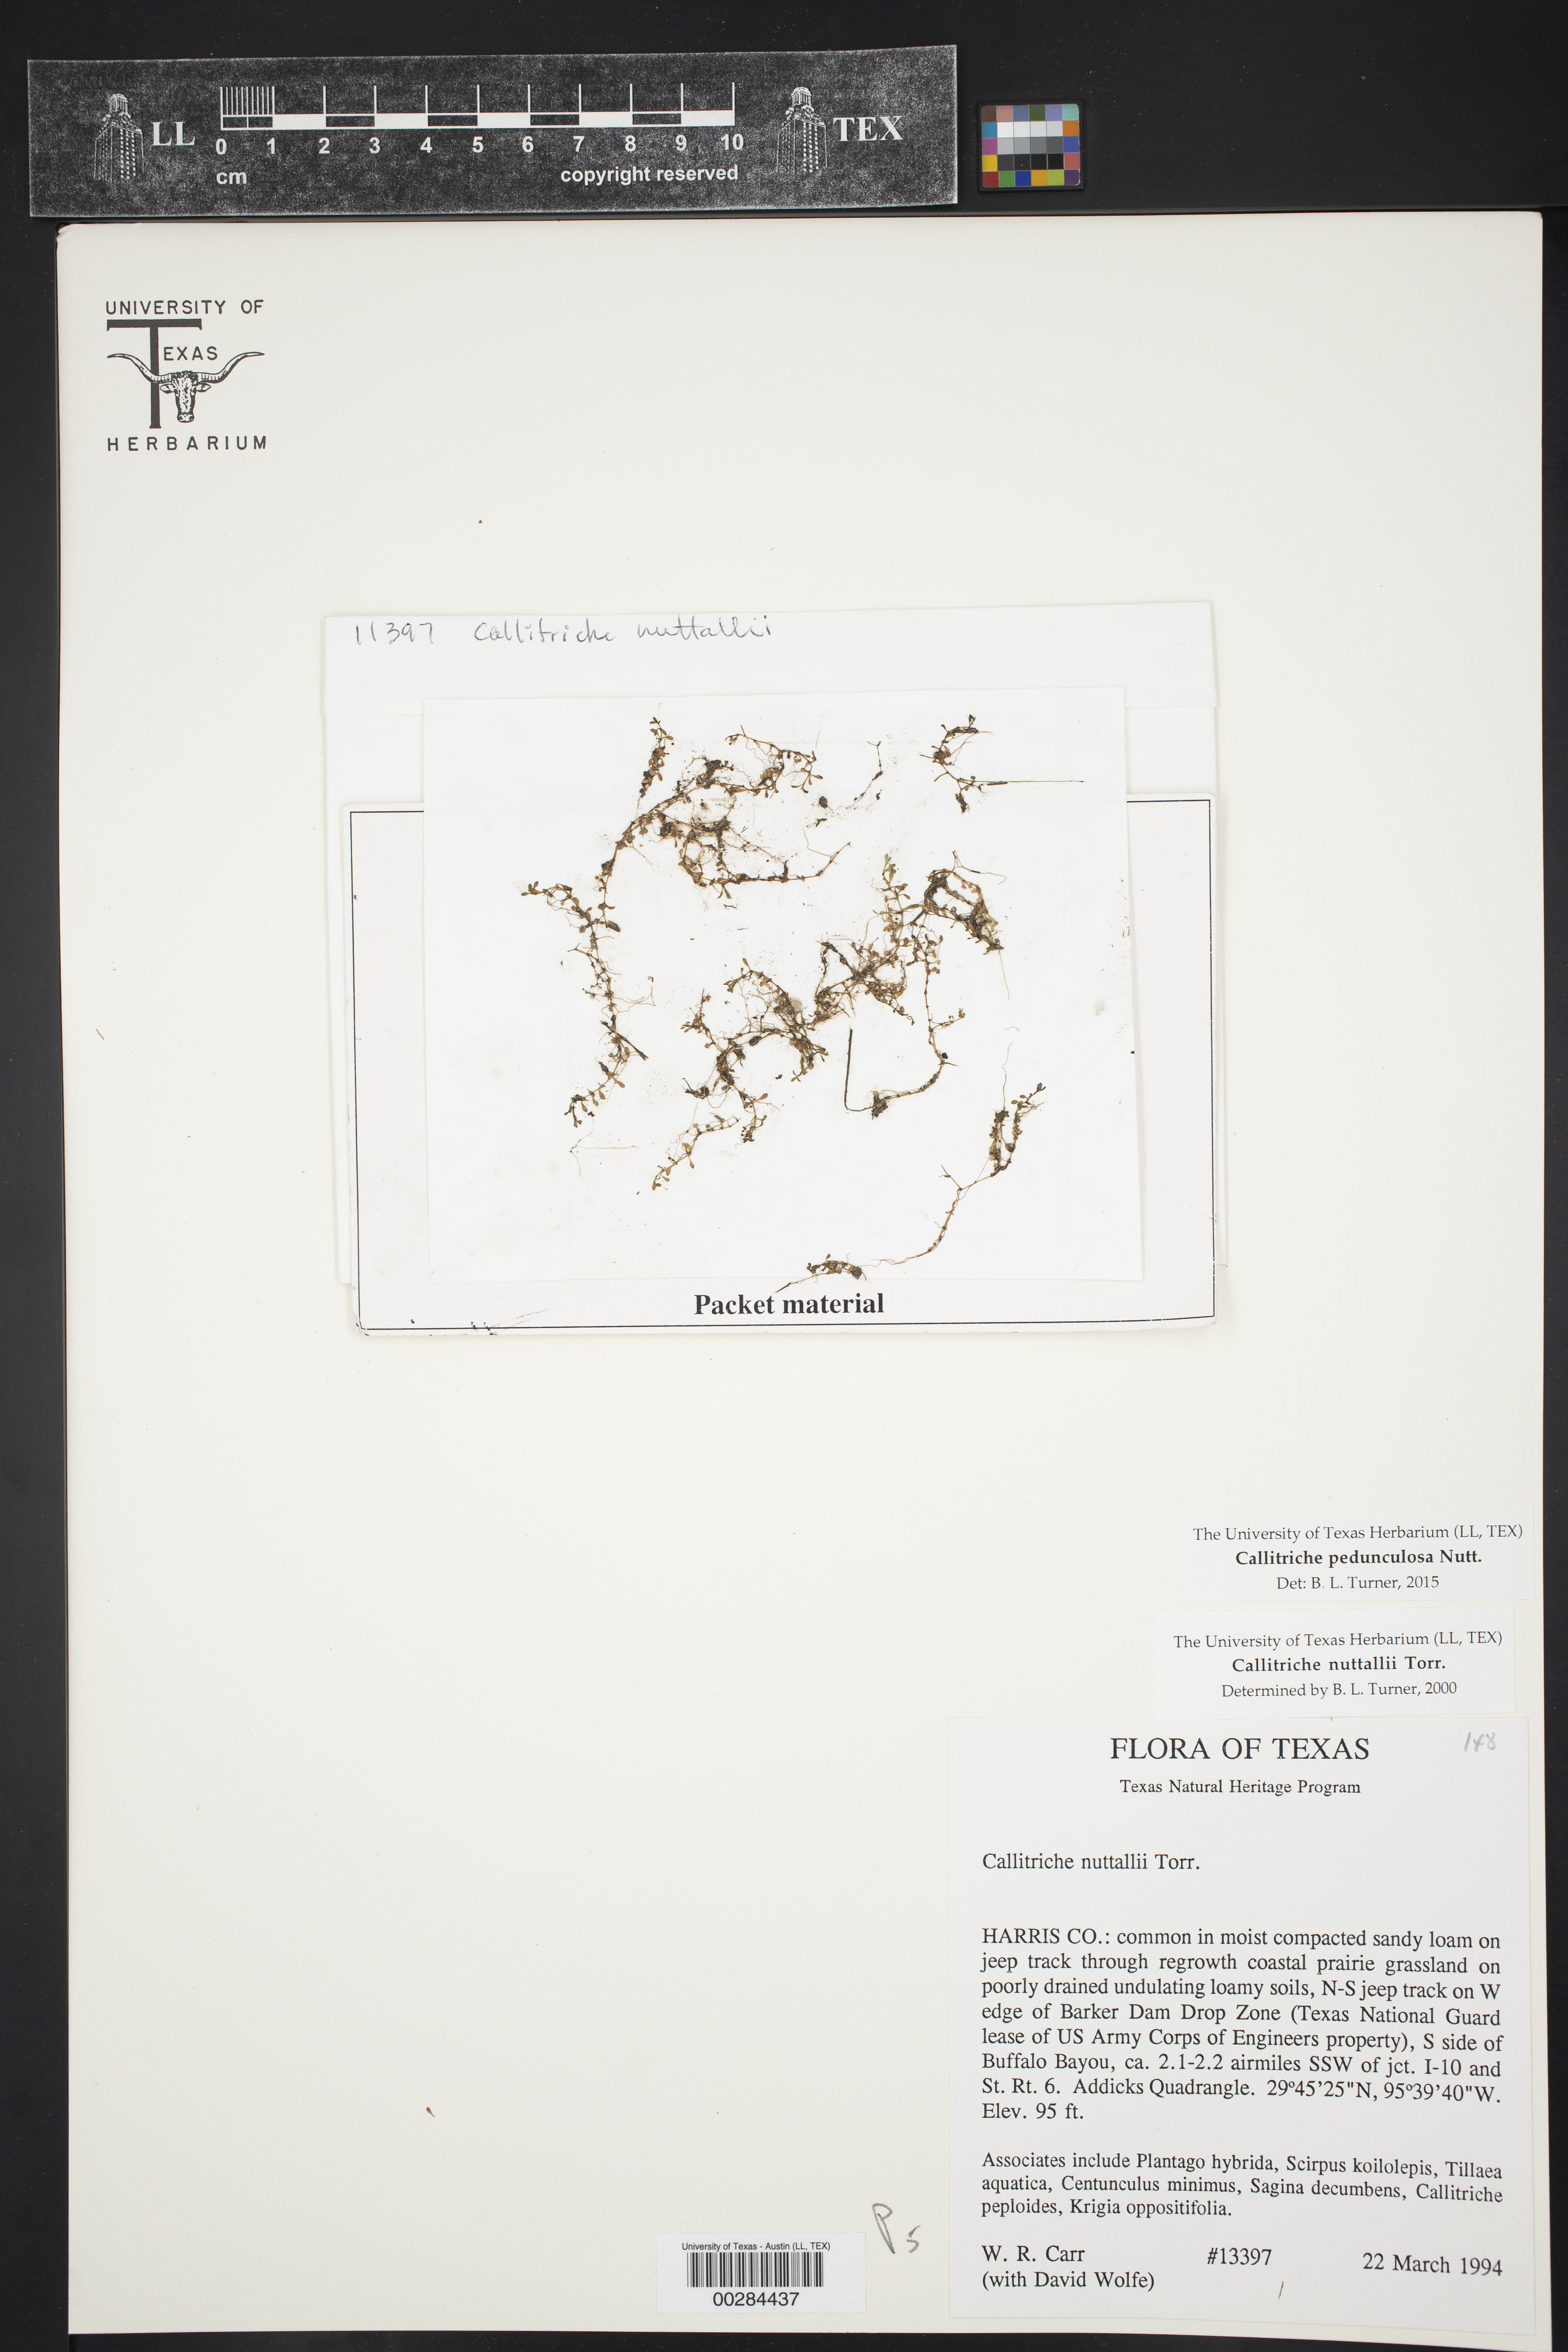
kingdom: Plantae
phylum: Tracheophyta
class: Magnoliopsida
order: Lamiales
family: Plantaginaceae
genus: Callitriche
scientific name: Callitriche pedunculosa
